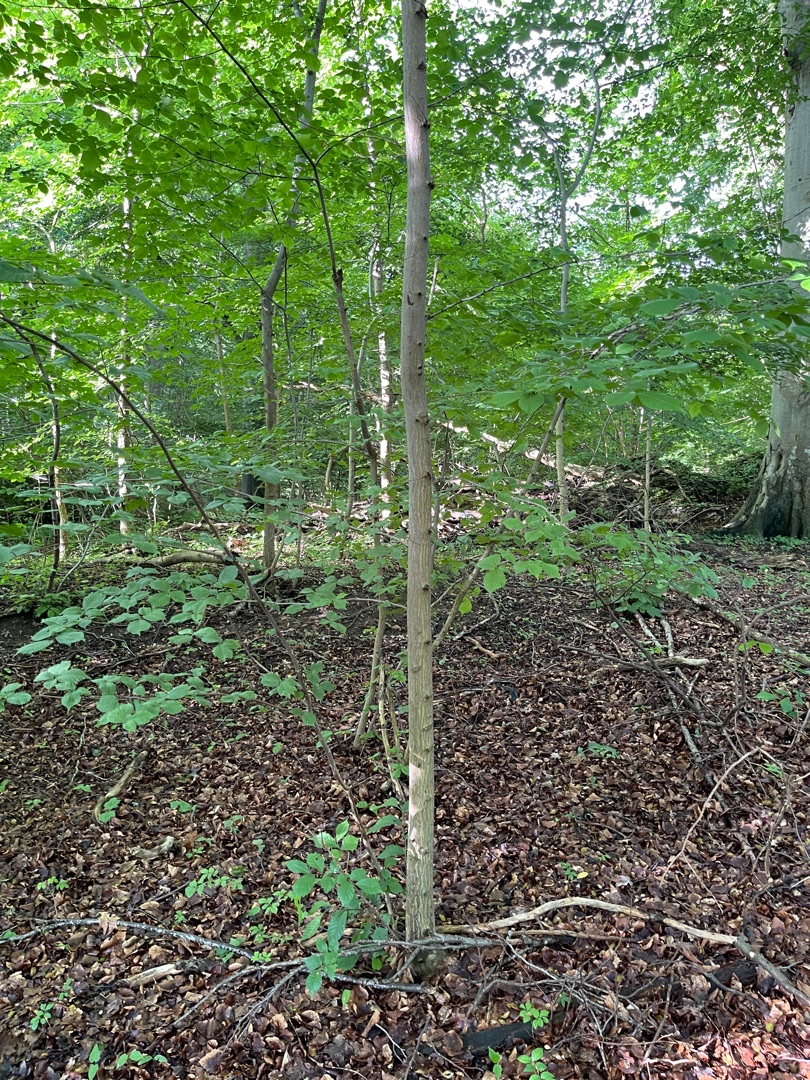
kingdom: Plantae
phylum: Tracheophyta
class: Magnoliopsida
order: Rosales
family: Ulmaceae
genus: Ulmus
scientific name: Ulmus glabra
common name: Skov-elm/storbladet elm
